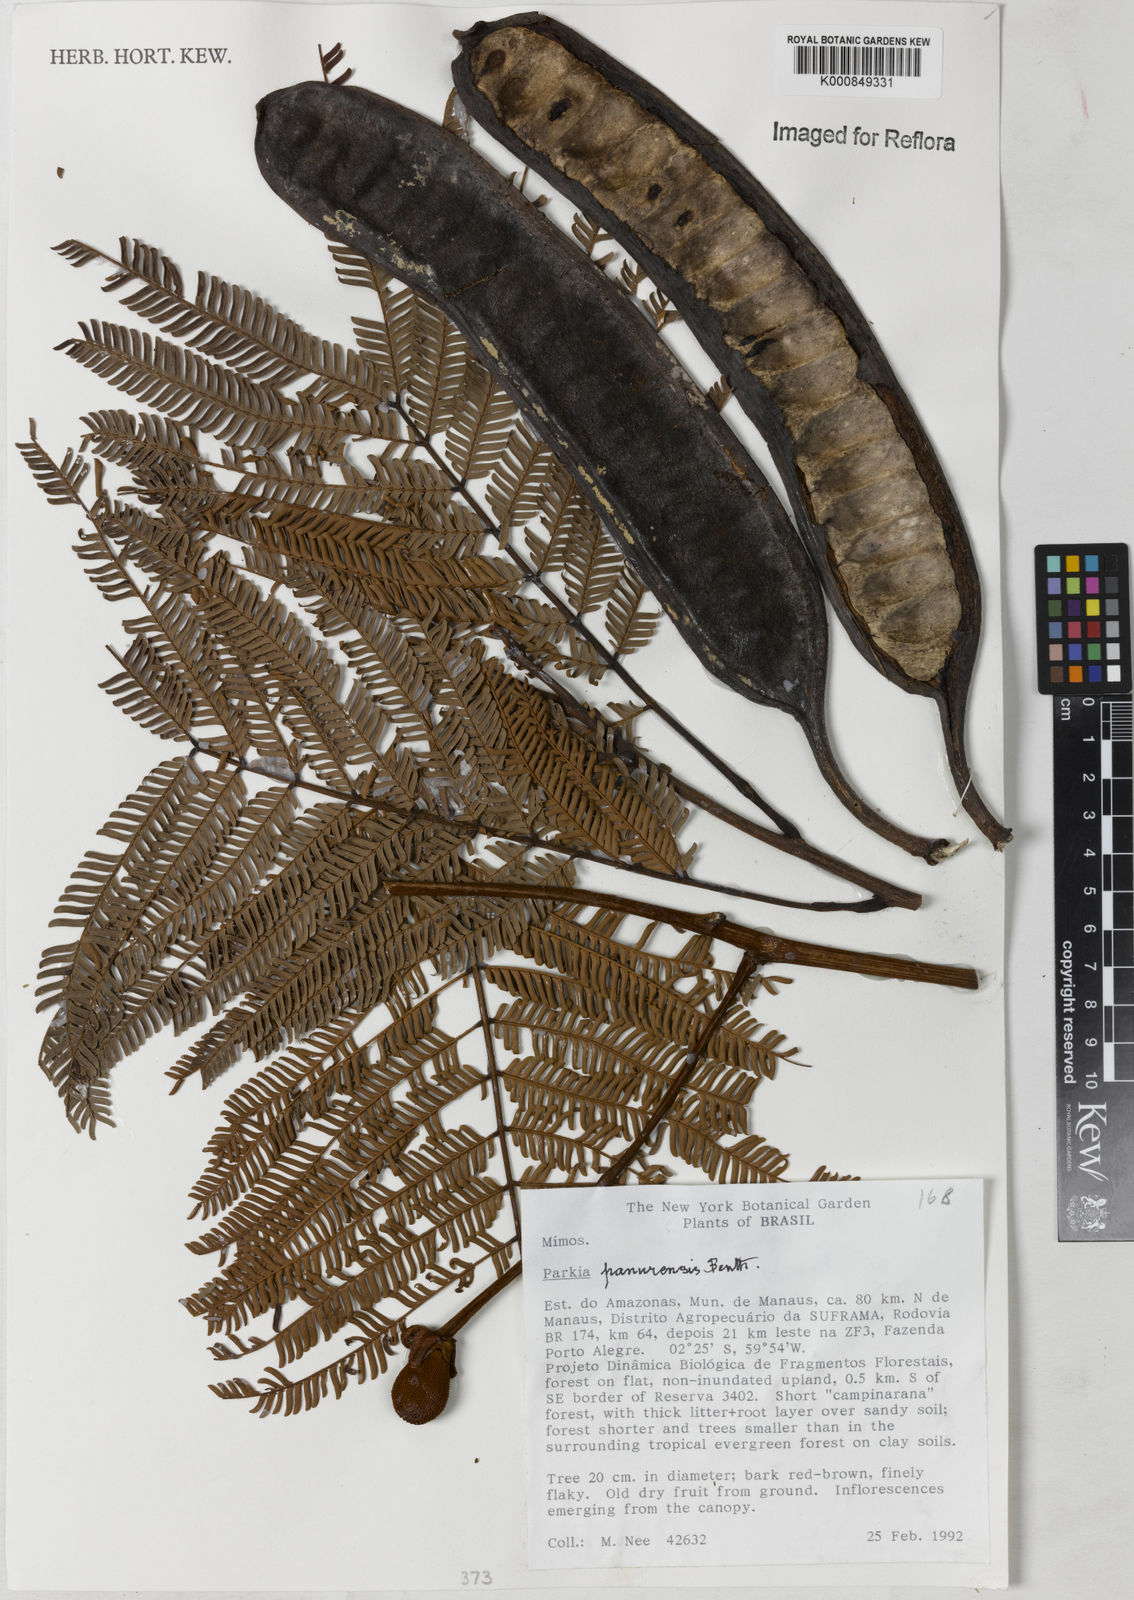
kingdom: Plantae
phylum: Tracheophyta
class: Magnoliopsida
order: Fabales
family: Fabaceae
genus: Parkia
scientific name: Parkia pectinata
